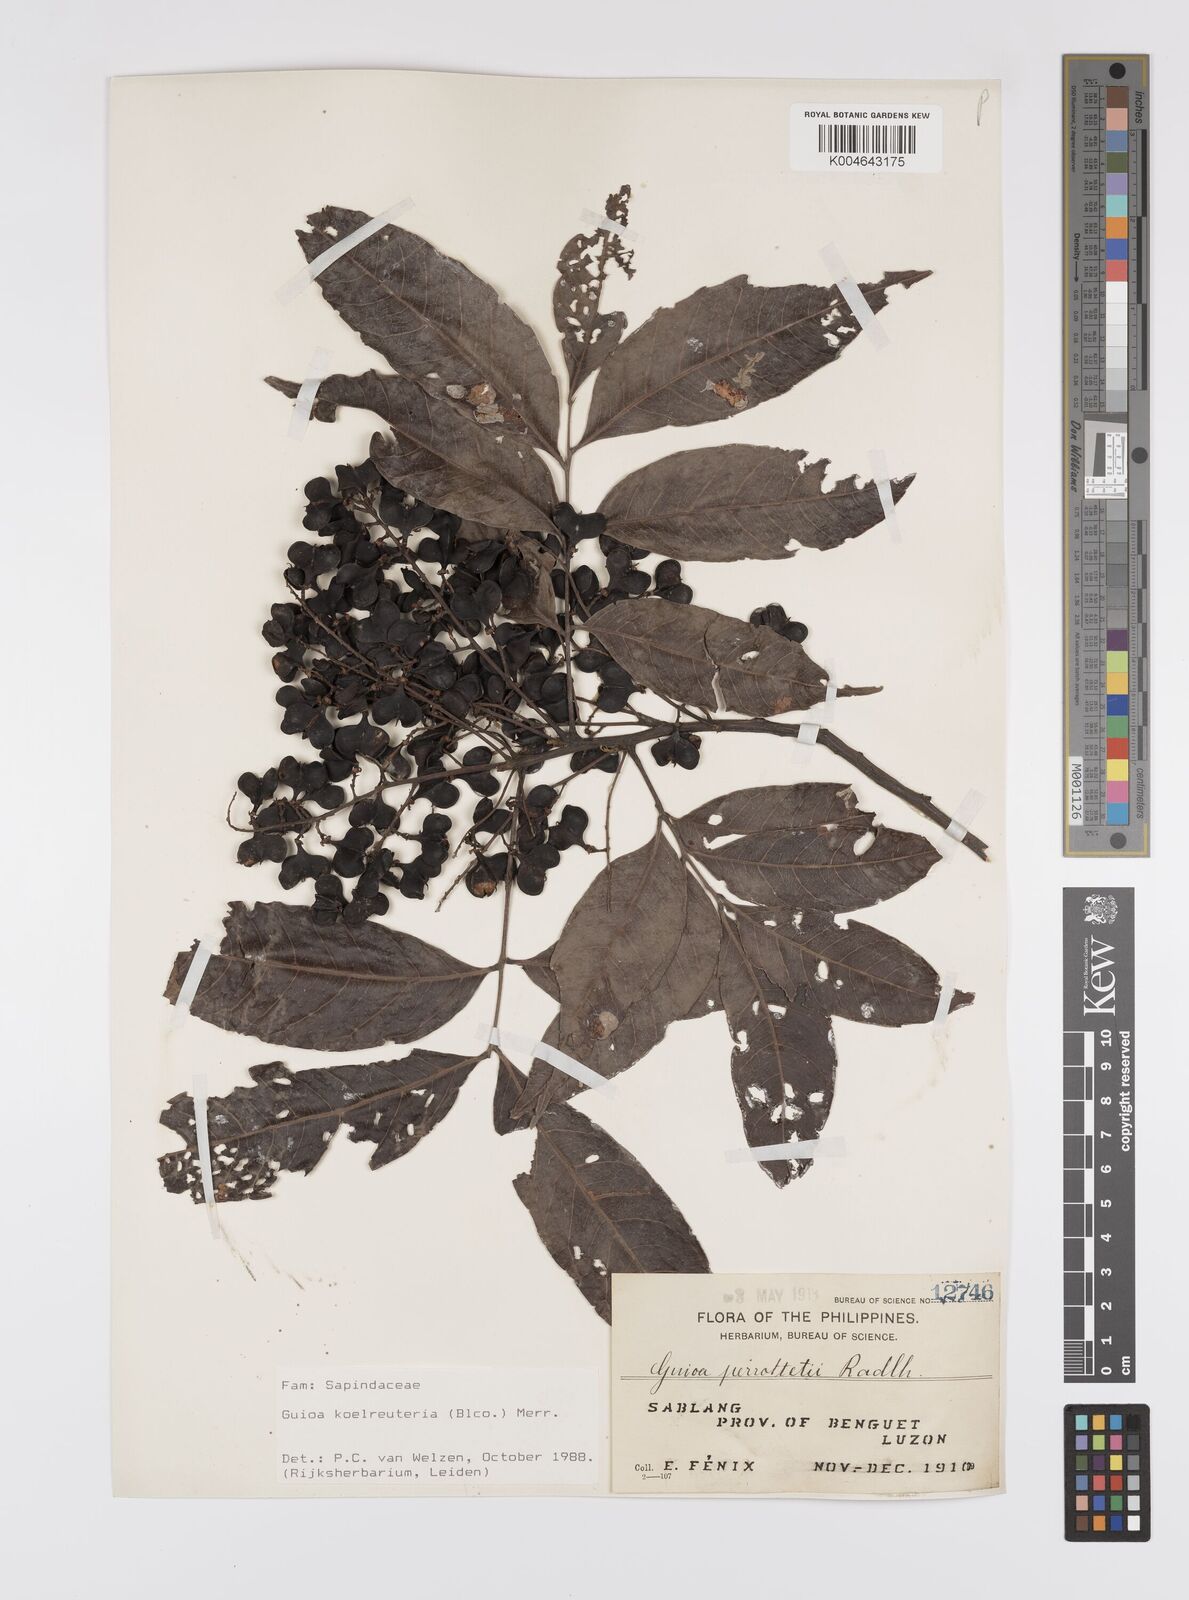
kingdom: Plantae
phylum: Tracheophyta
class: Magnoliopsida
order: Sapindales
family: Sapindaceae
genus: Guioa
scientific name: Guioa koelreuteria
